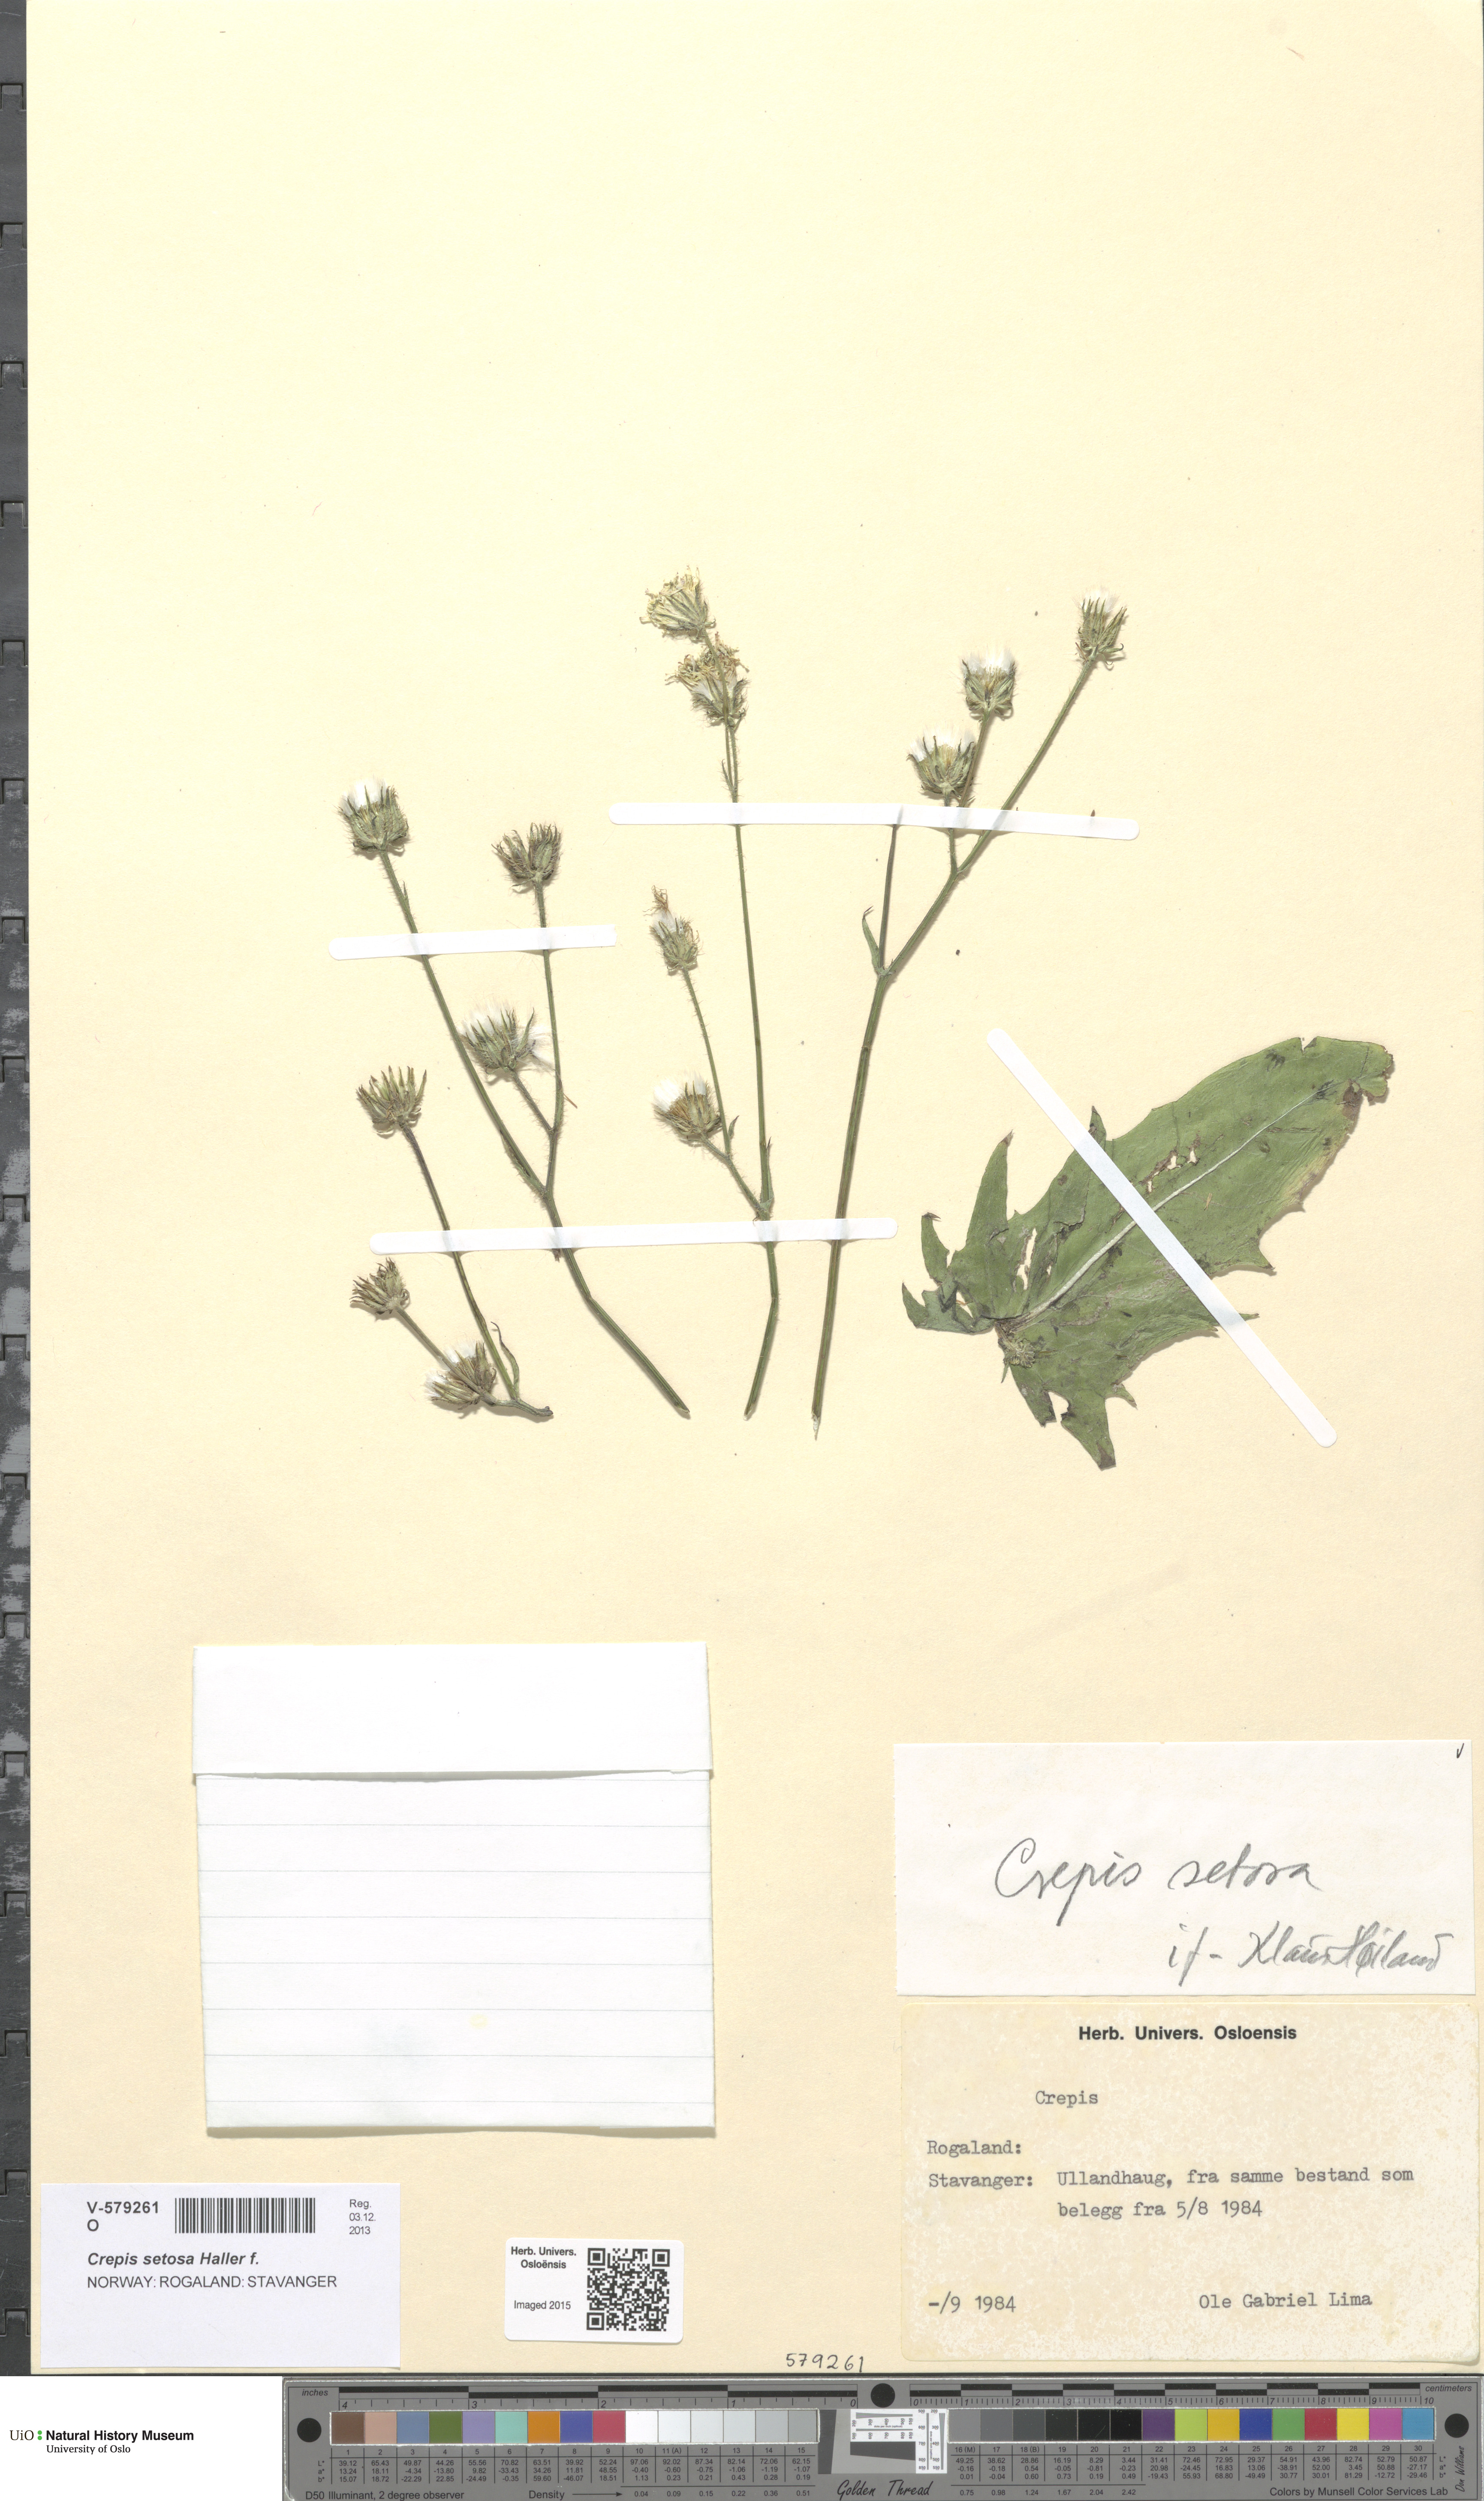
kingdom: Plantae
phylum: Tracheophyta
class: Magnoliopsida
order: Asterales
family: Asteraceae
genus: Crepis
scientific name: Crepis setosa
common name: Bristly hawk's-beard
